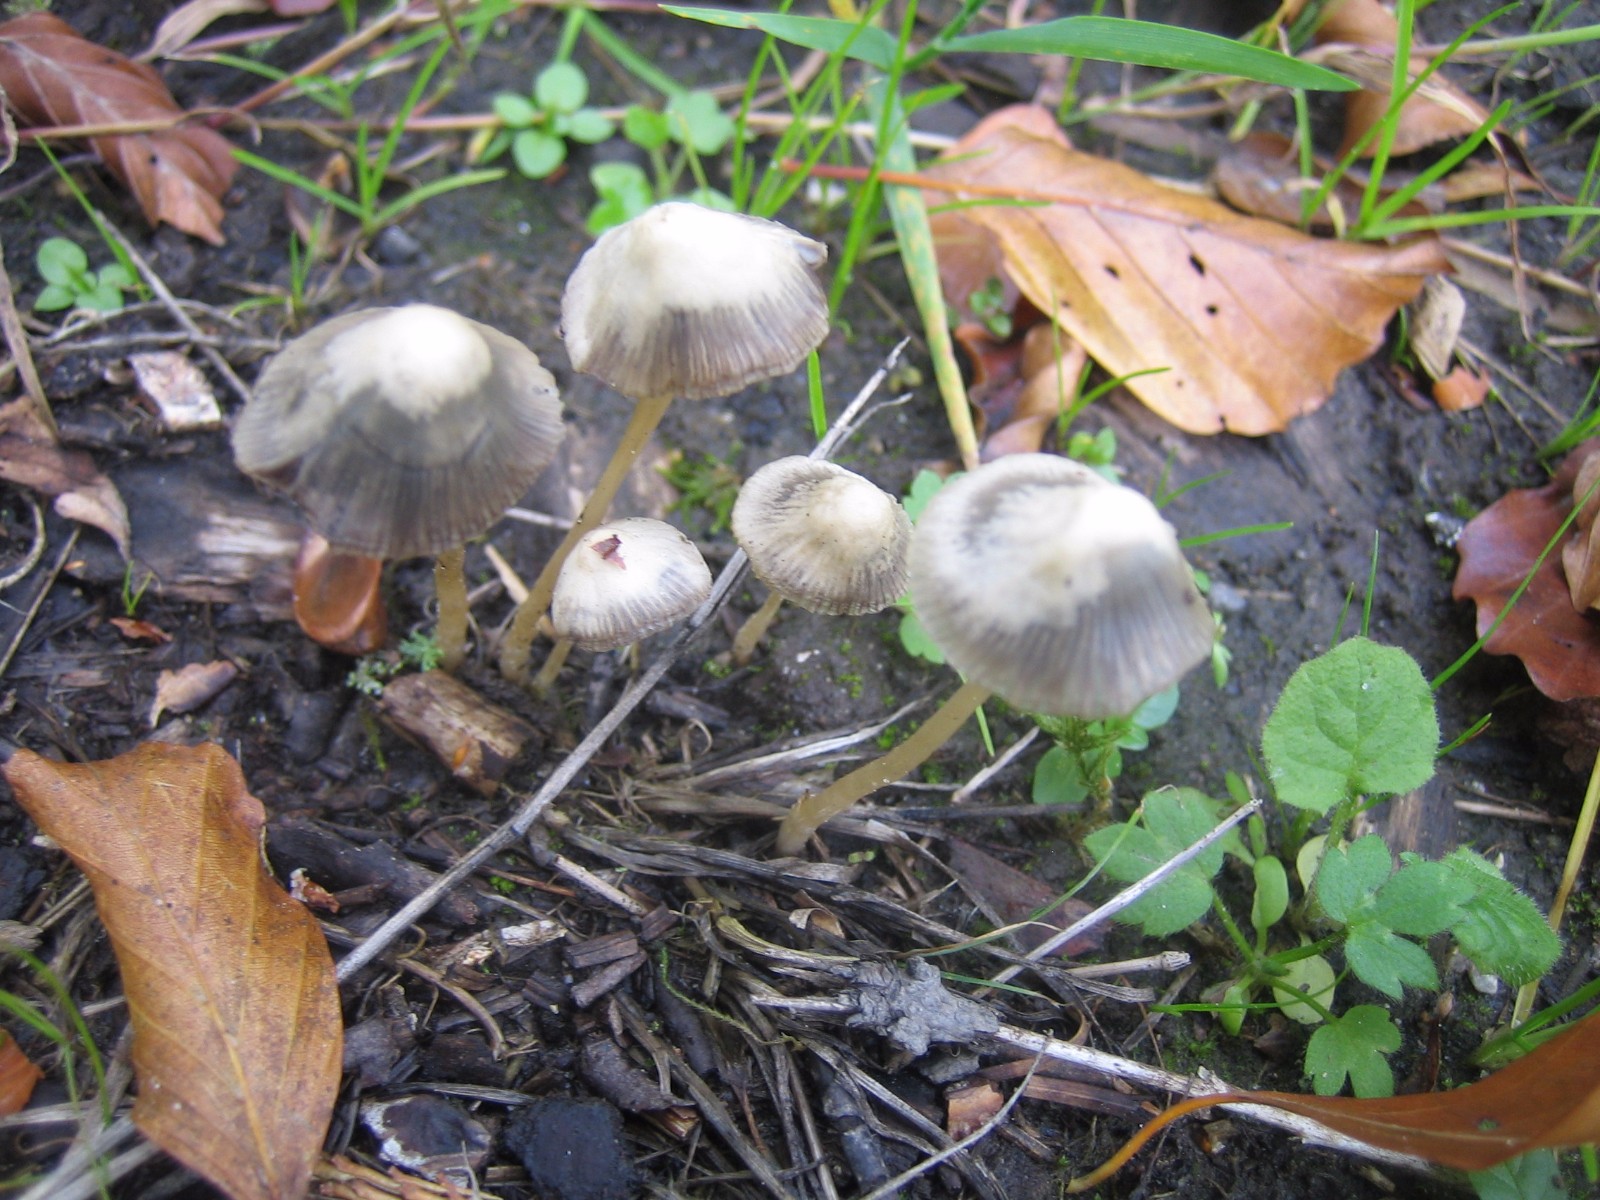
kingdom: Fungi
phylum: Basidiomycota
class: Agaricomycetes
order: Agaricales
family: Psathyrellaceae
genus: Psathyrella
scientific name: Psathyrella
